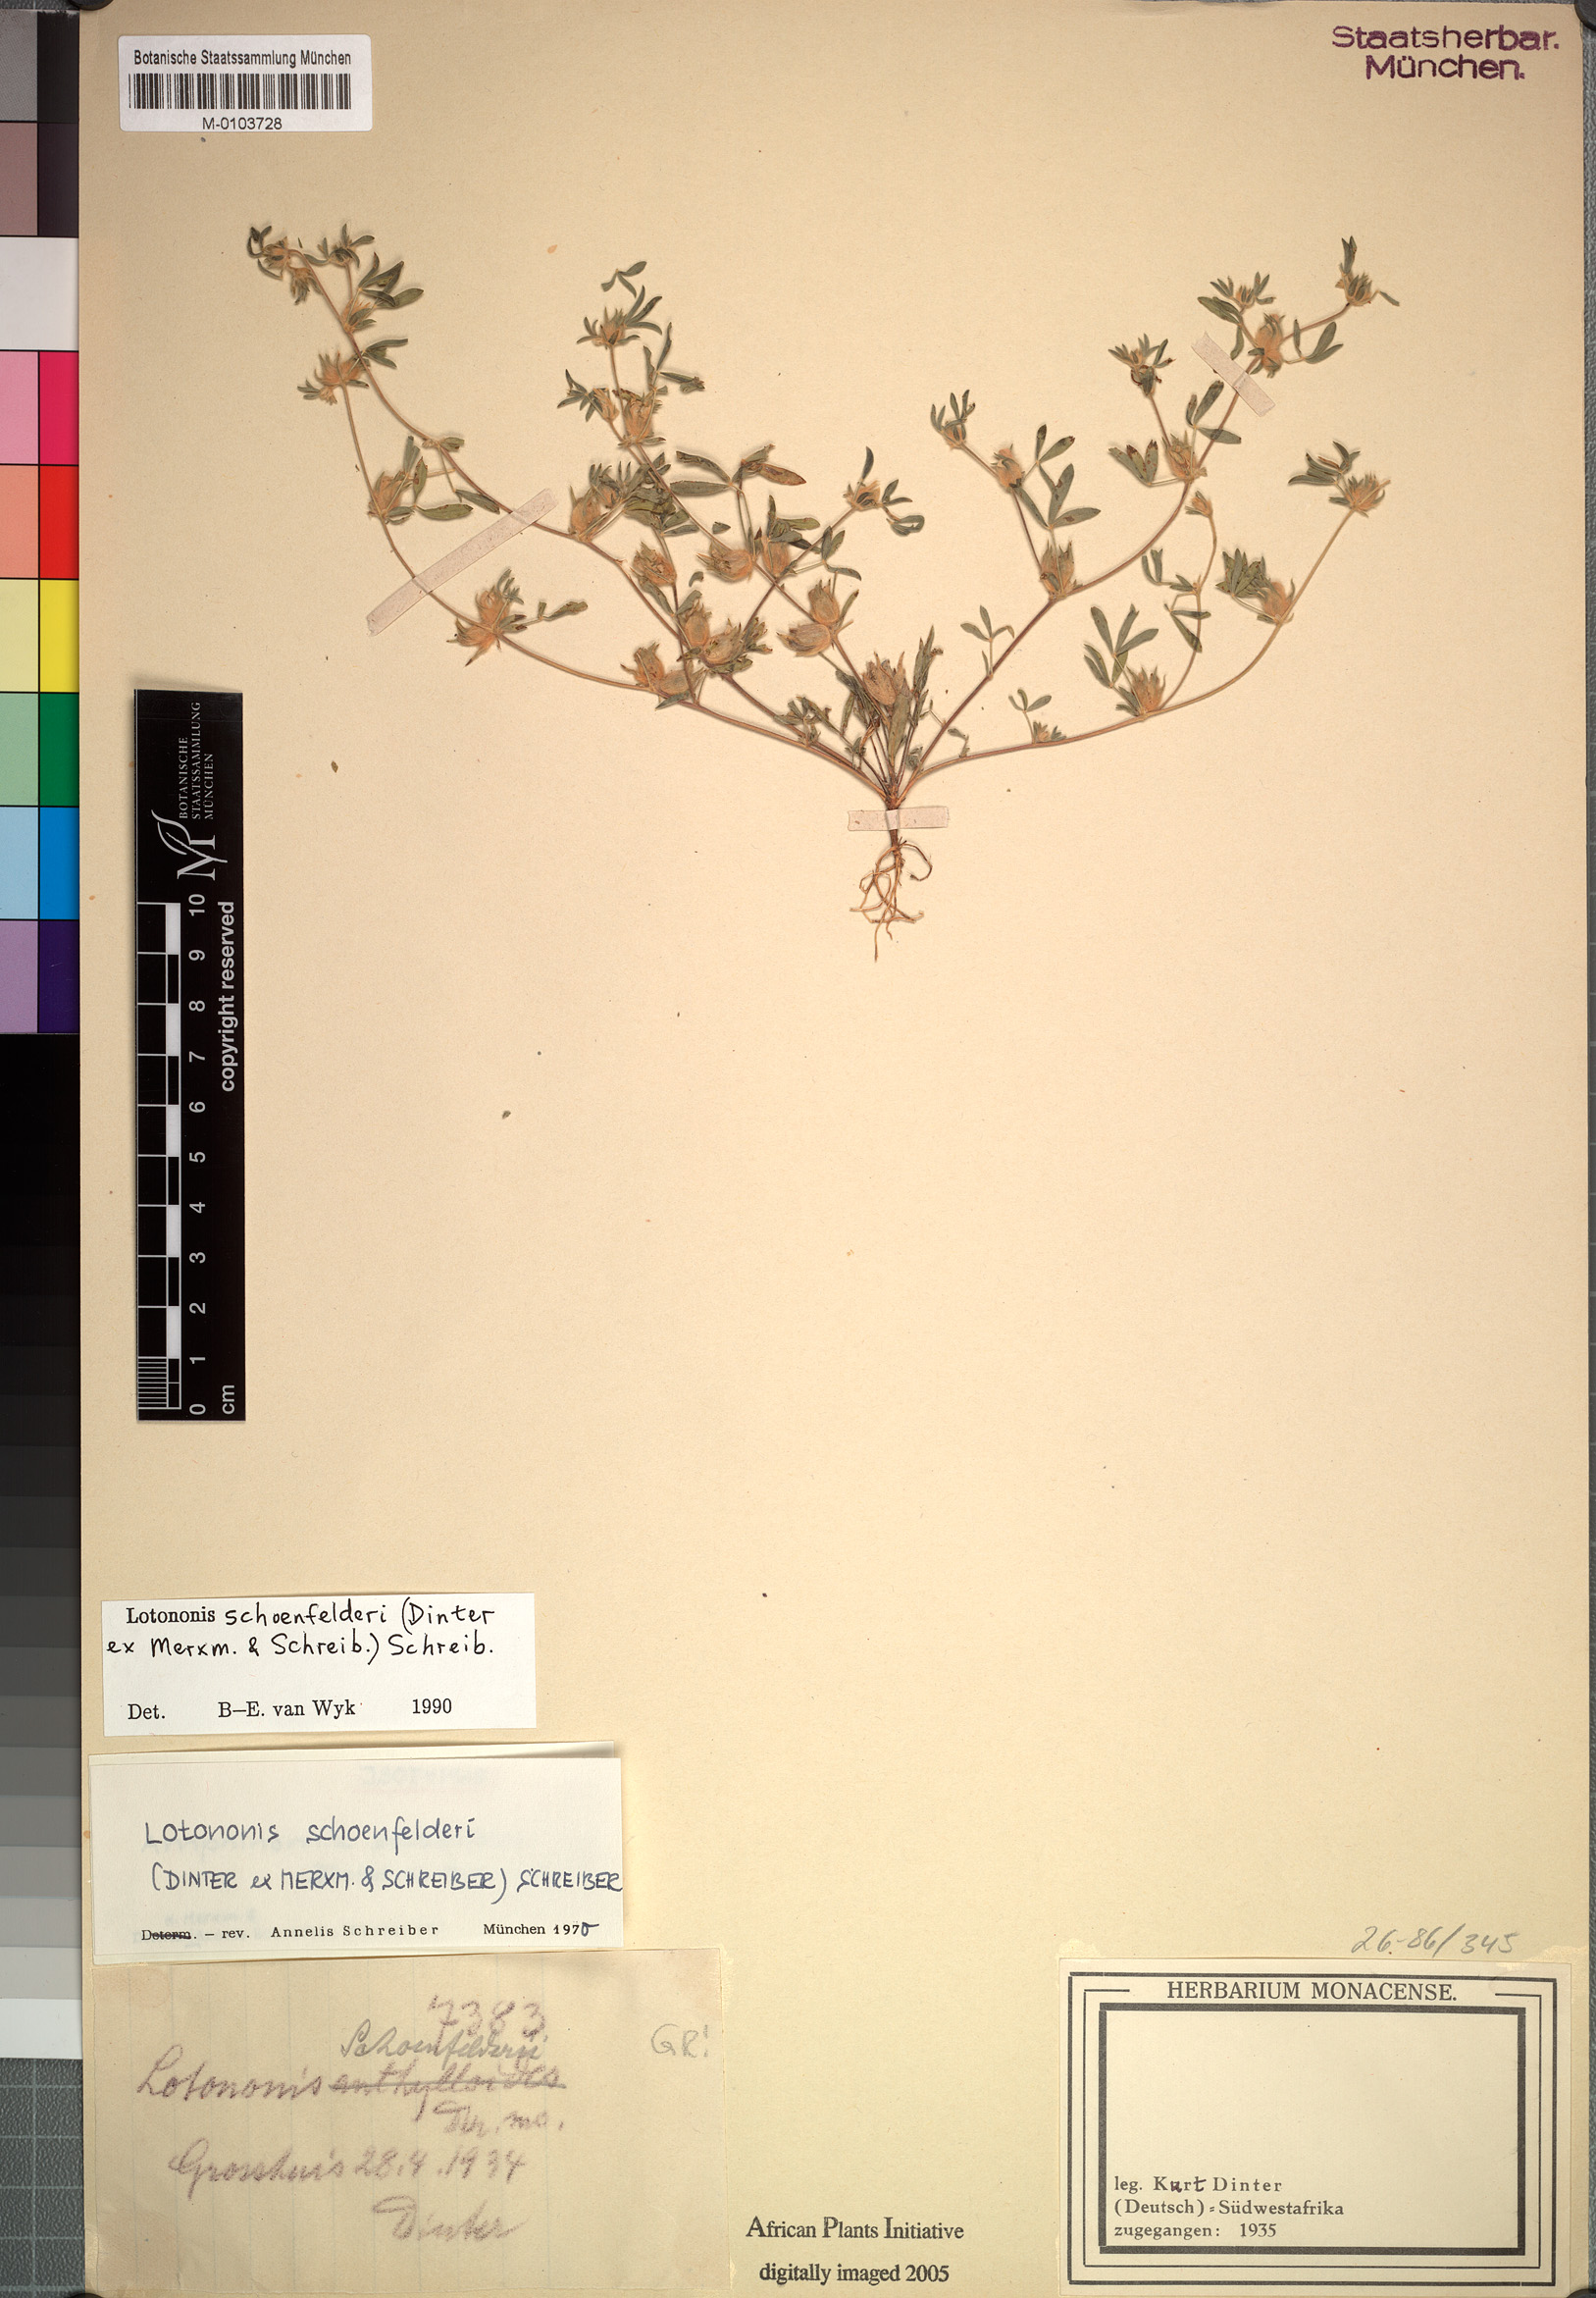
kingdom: Plantae
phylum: Tracheophyta
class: Magnoliopsida
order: Fabales
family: Fabaceae
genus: Leobordea
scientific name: Leobordea schoenfelderi
